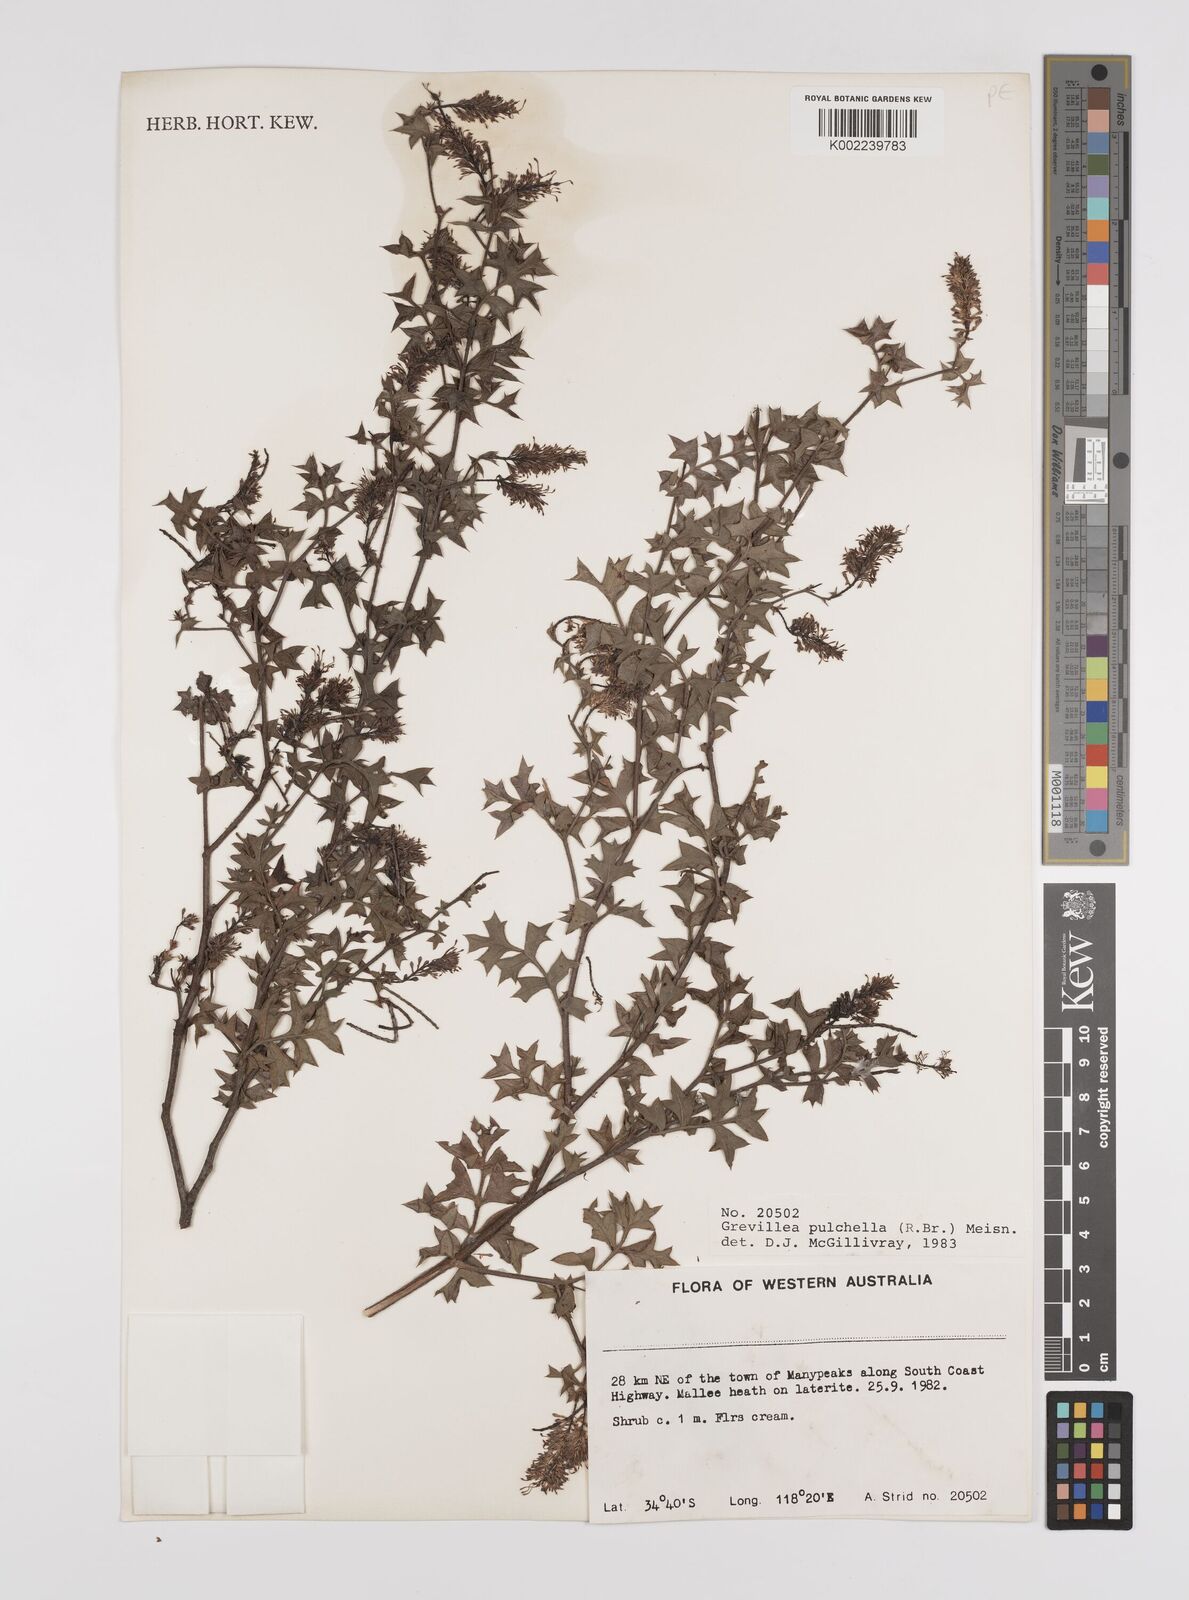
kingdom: Plantae
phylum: Tracheophyta
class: Magnoliopsida
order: Proteales
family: Proteaceae
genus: Grevillea
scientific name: Grevillea pulchella
